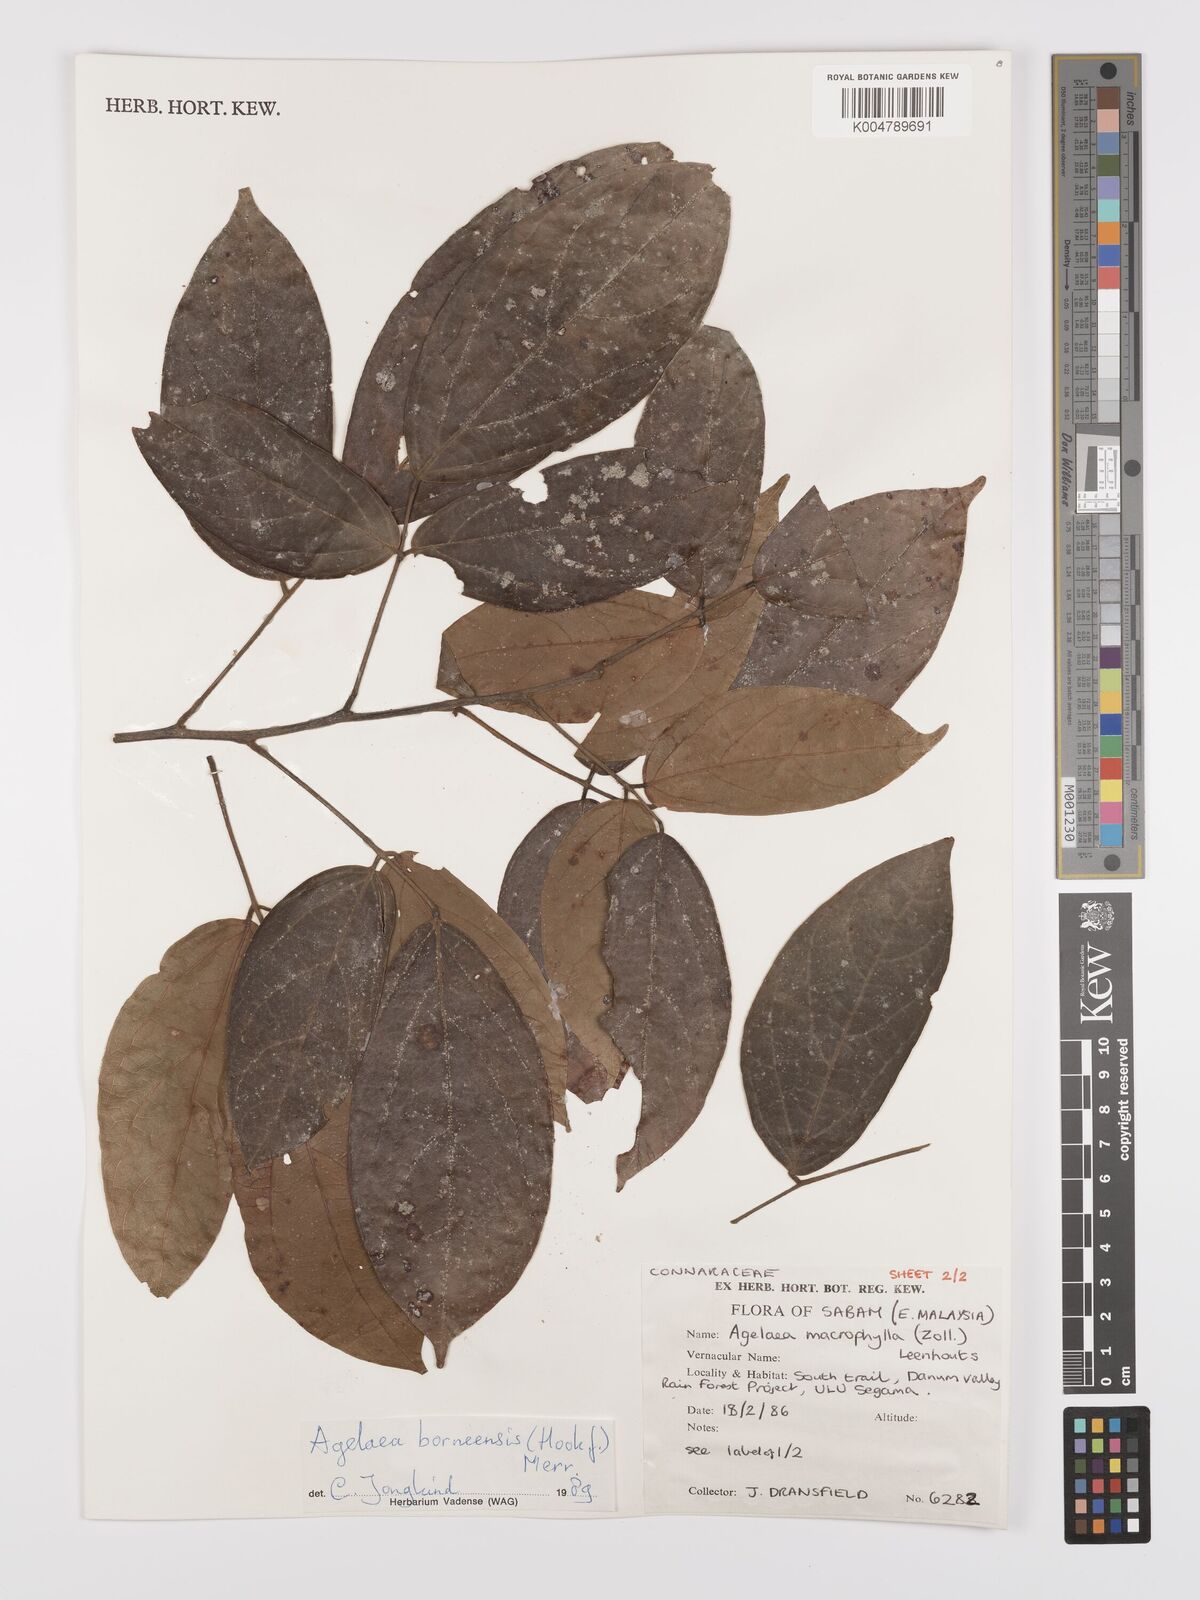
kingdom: Plantae
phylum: Tracheophyta
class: Magnoliopsida
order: Oxalidales
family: Connaraceae
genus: Agelaea
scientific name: Agelaea borneensis
